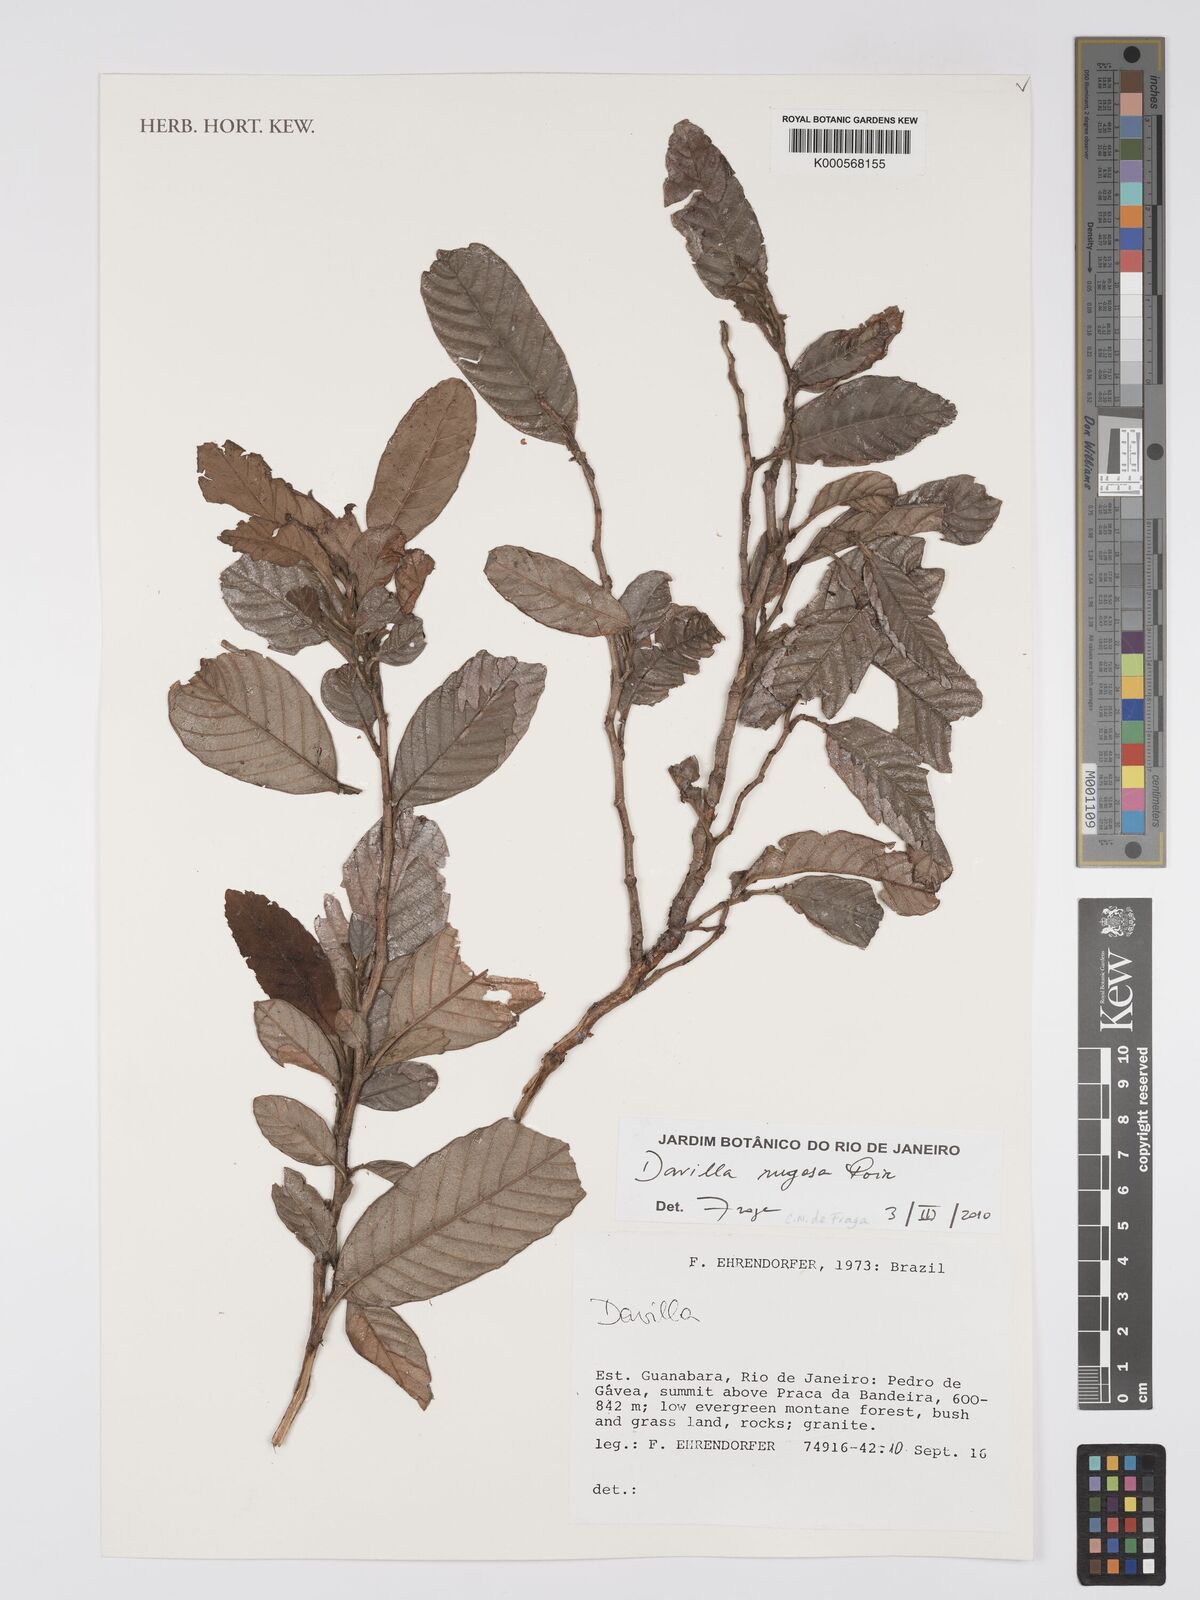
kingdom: Plantae
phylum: Tracheophyta
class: Magnoliopsida
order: Dilleniales
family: Dilleniaceae
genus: Davilla
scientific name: Davilla rugosa
